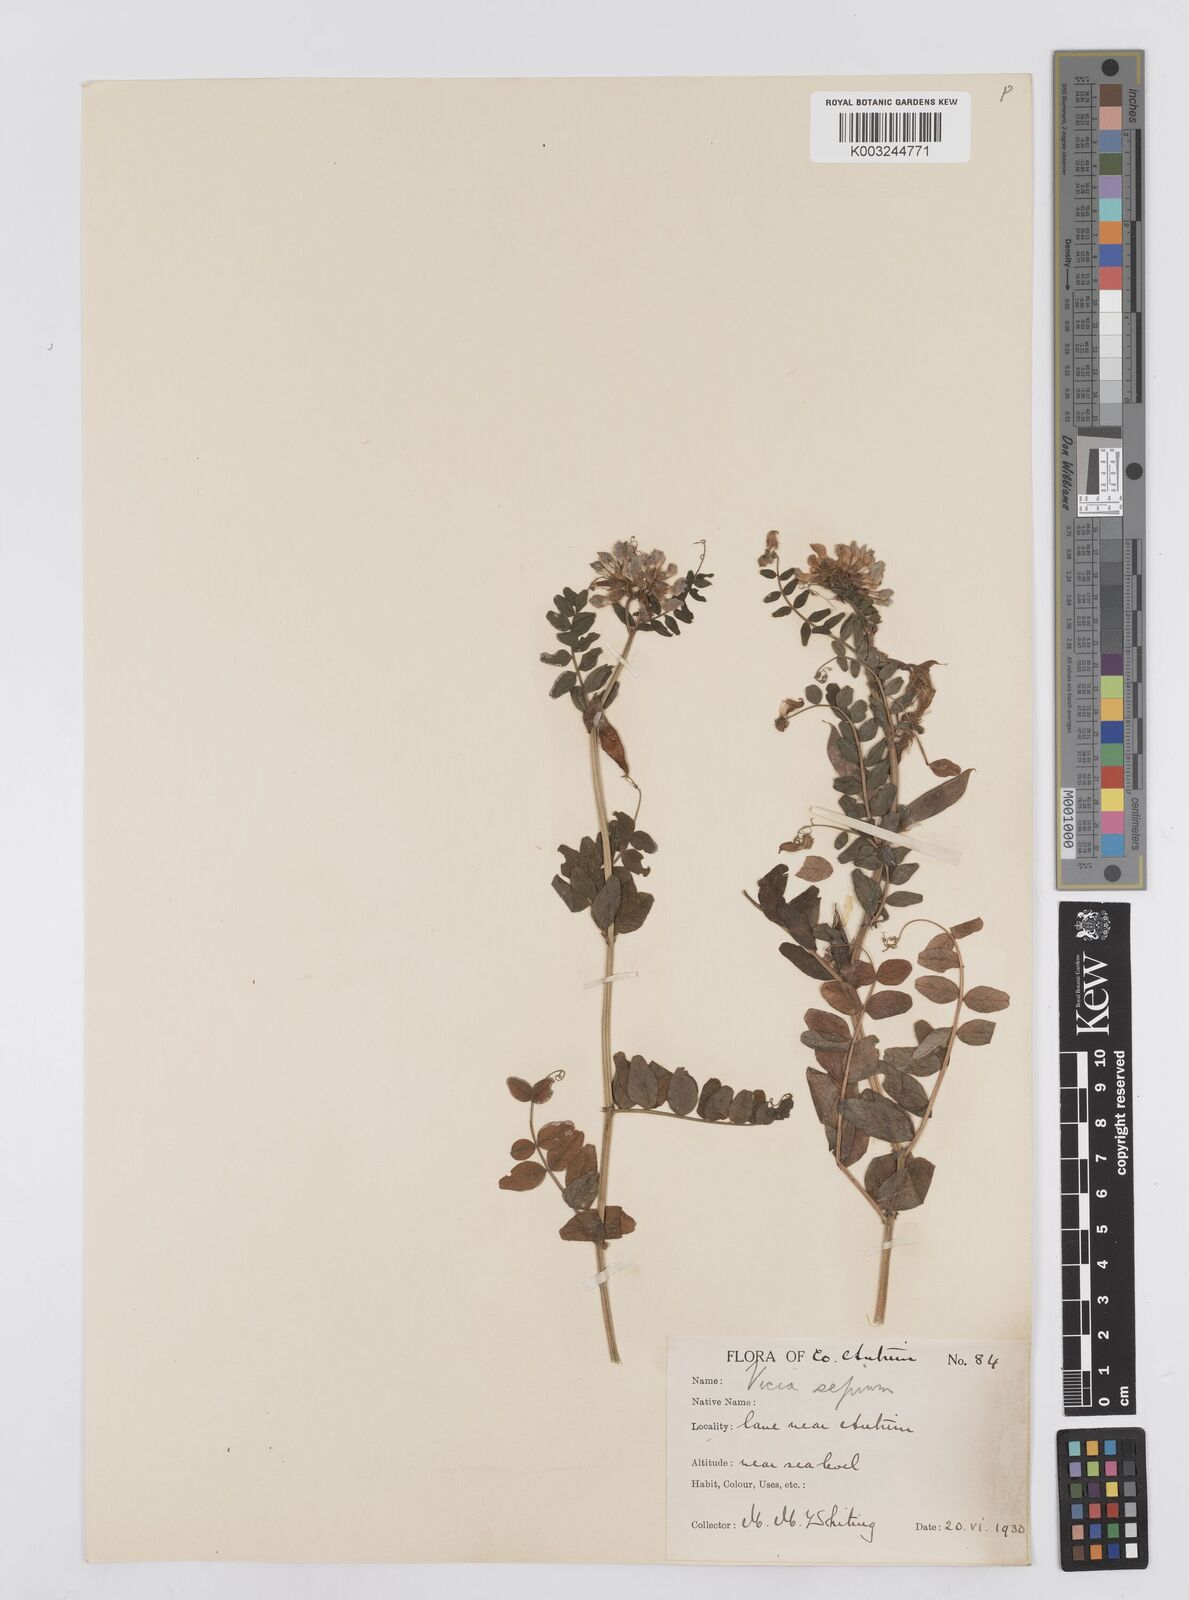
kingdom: Plantae
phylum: Tracheophyta
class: Magnoliopsida
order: Fabales
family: Fabaceae
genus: Vicia
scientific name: Vicia sepium
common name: Bush vetch
